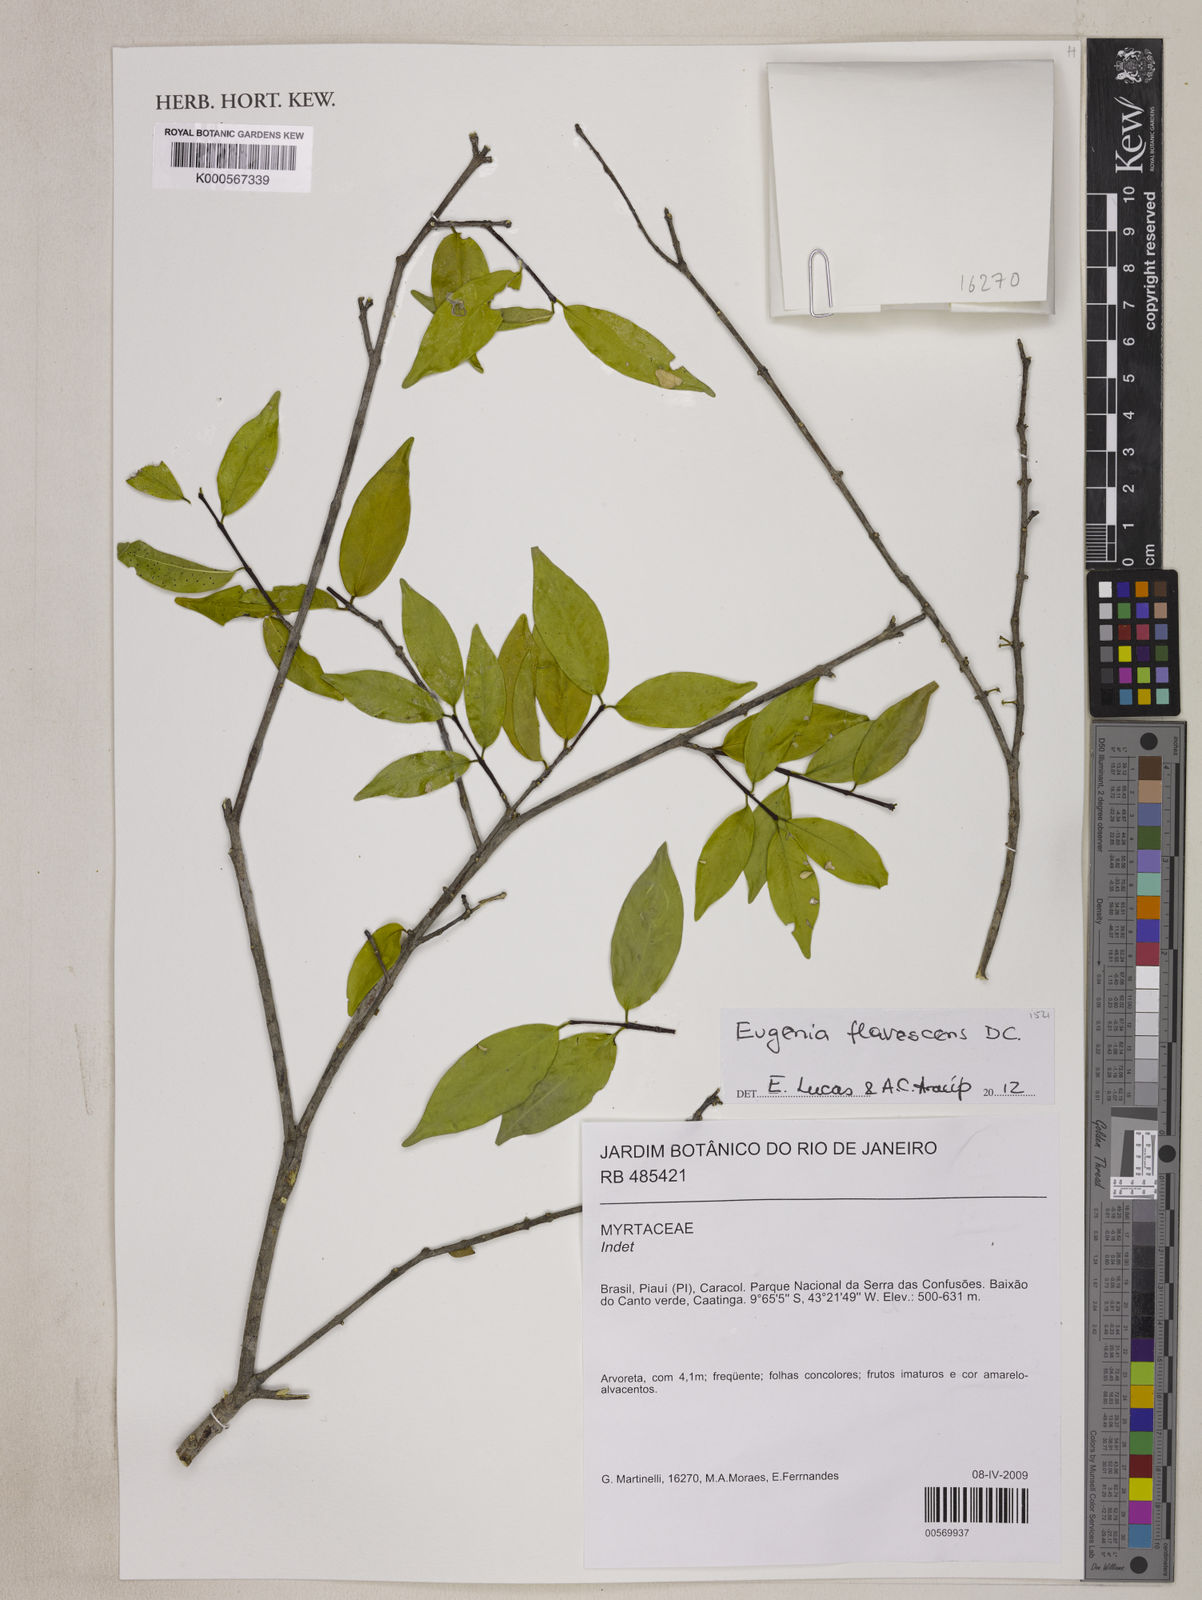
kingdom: Plantae
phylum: Tracheophyta
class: Magnoliopsida
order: Myrtales
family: Myrtaceae
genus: Eugenia
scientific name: Eugenia flavescens
